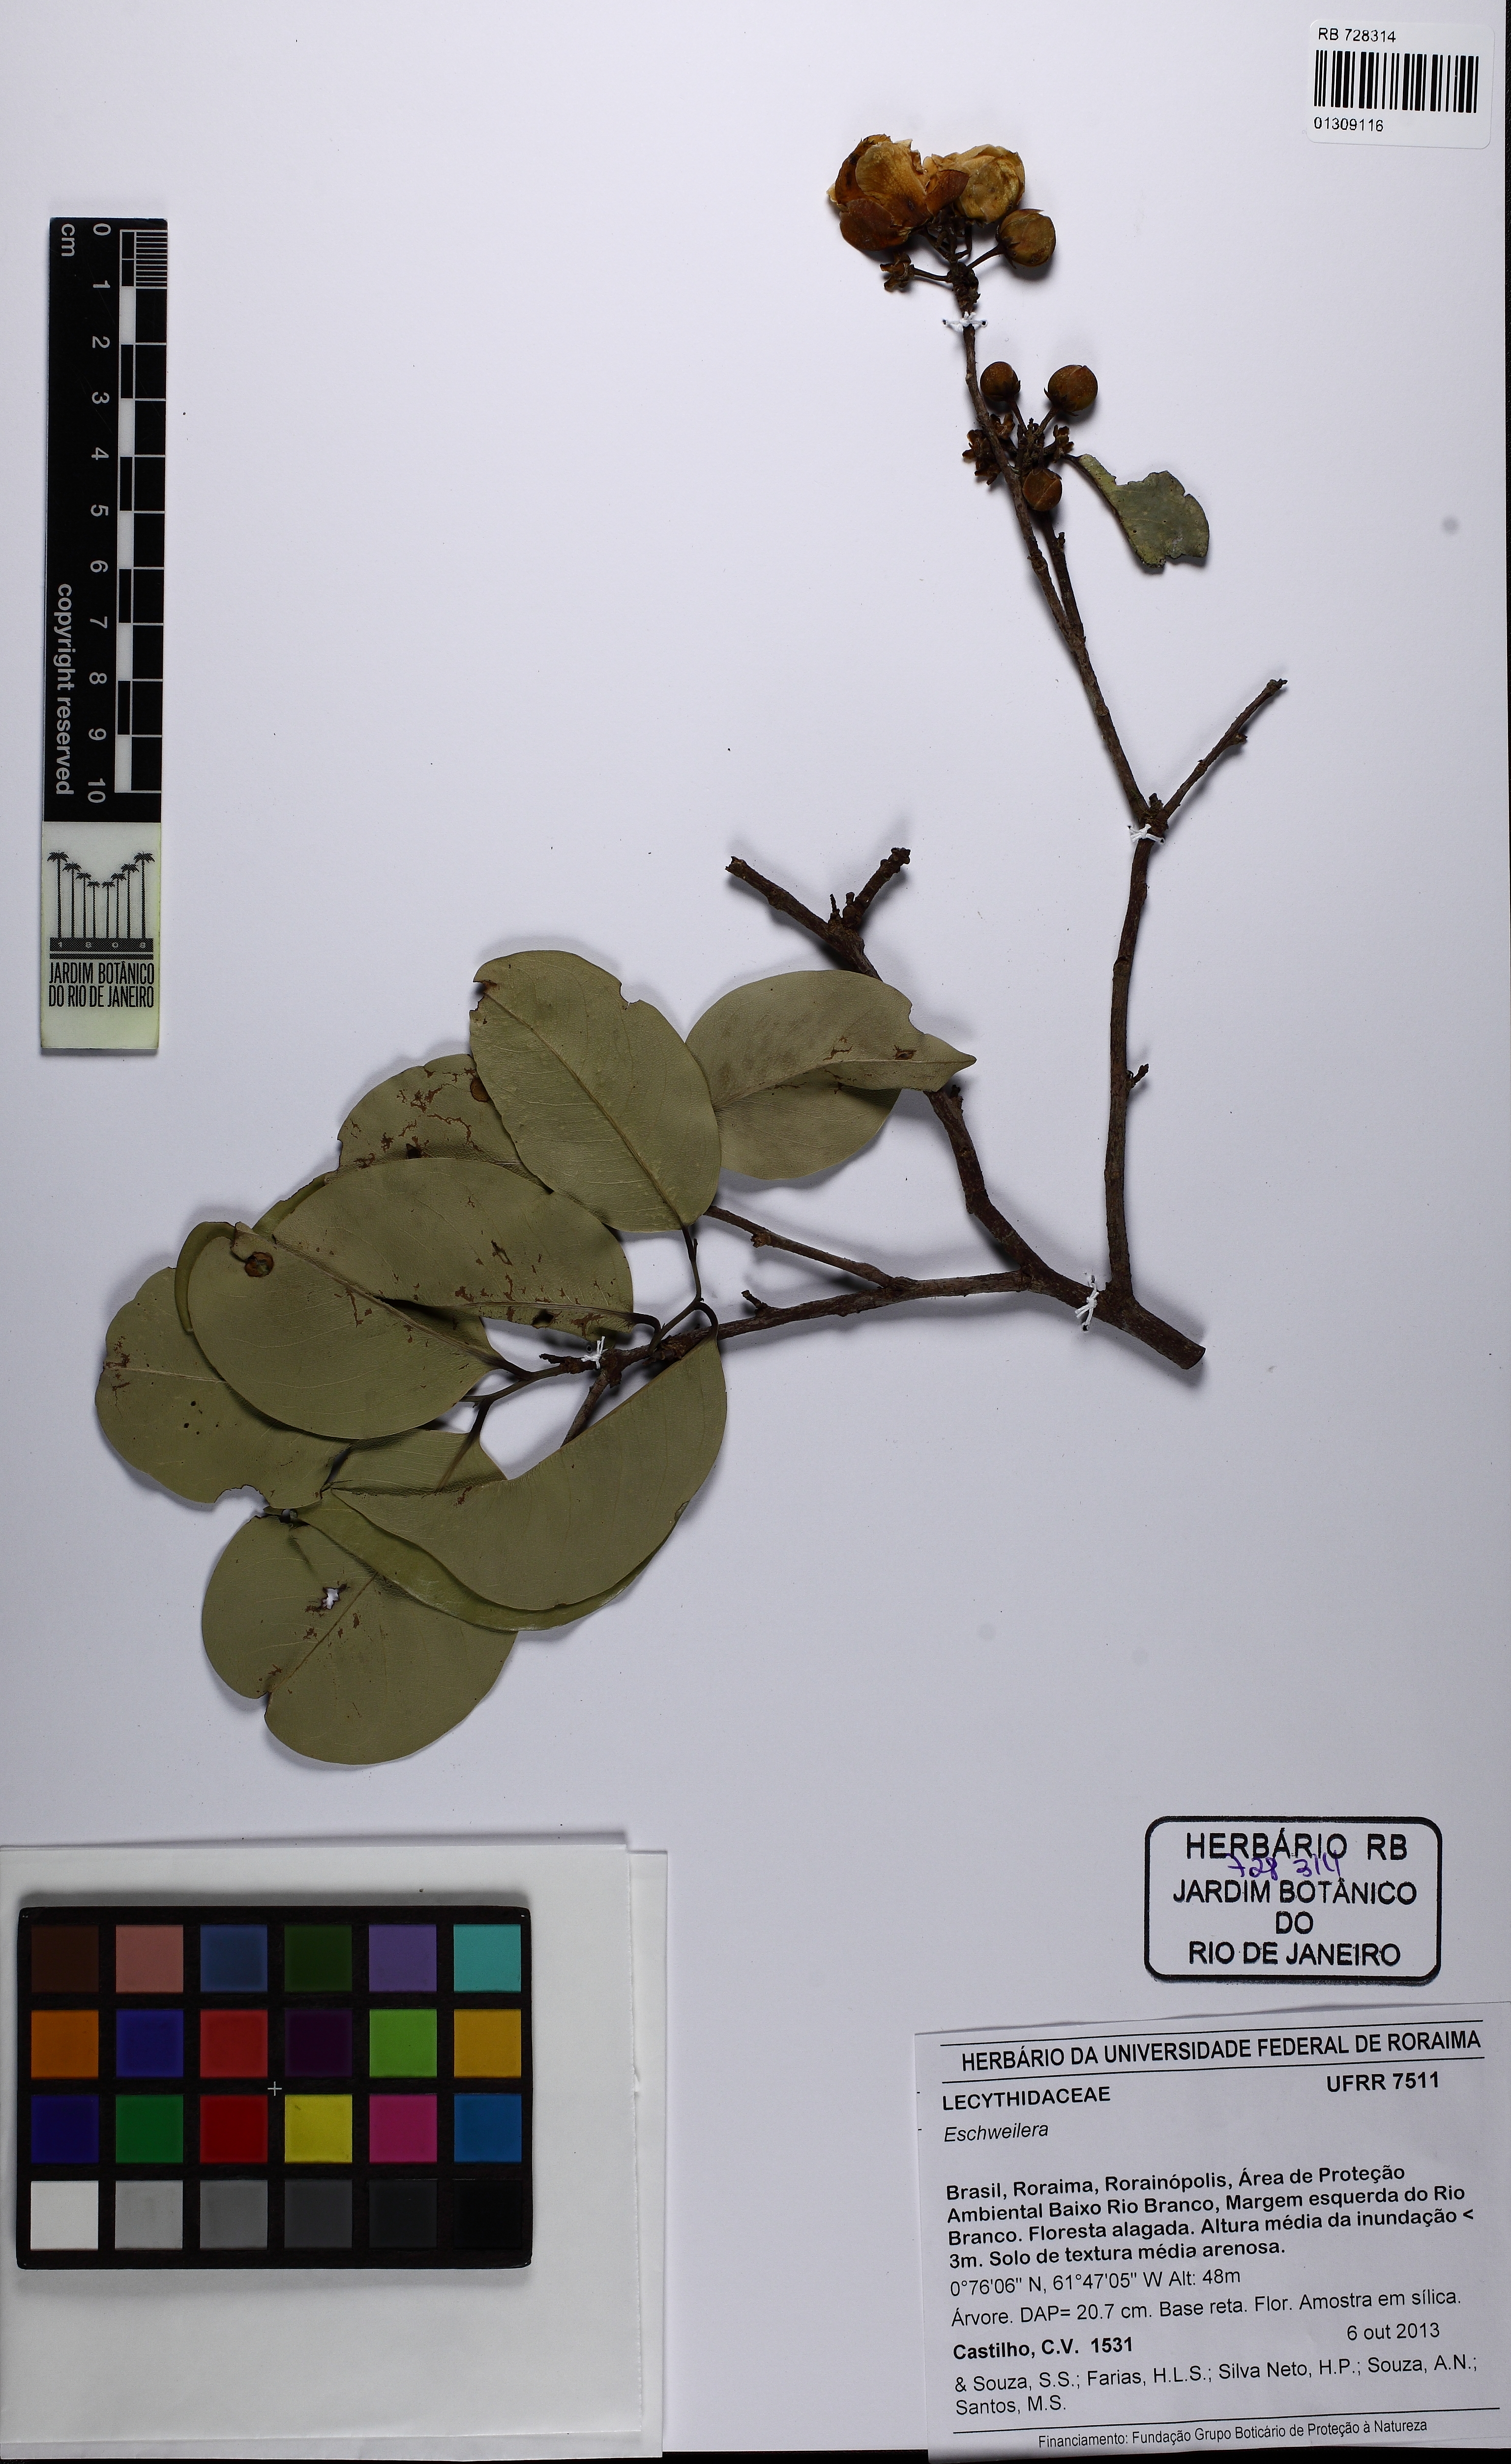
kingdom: Plantae
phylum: Tracheophyta
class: Magnoliopsida
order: Ericales
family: Lecythidaceae
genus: Eschweilera
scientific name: Eschweilera
